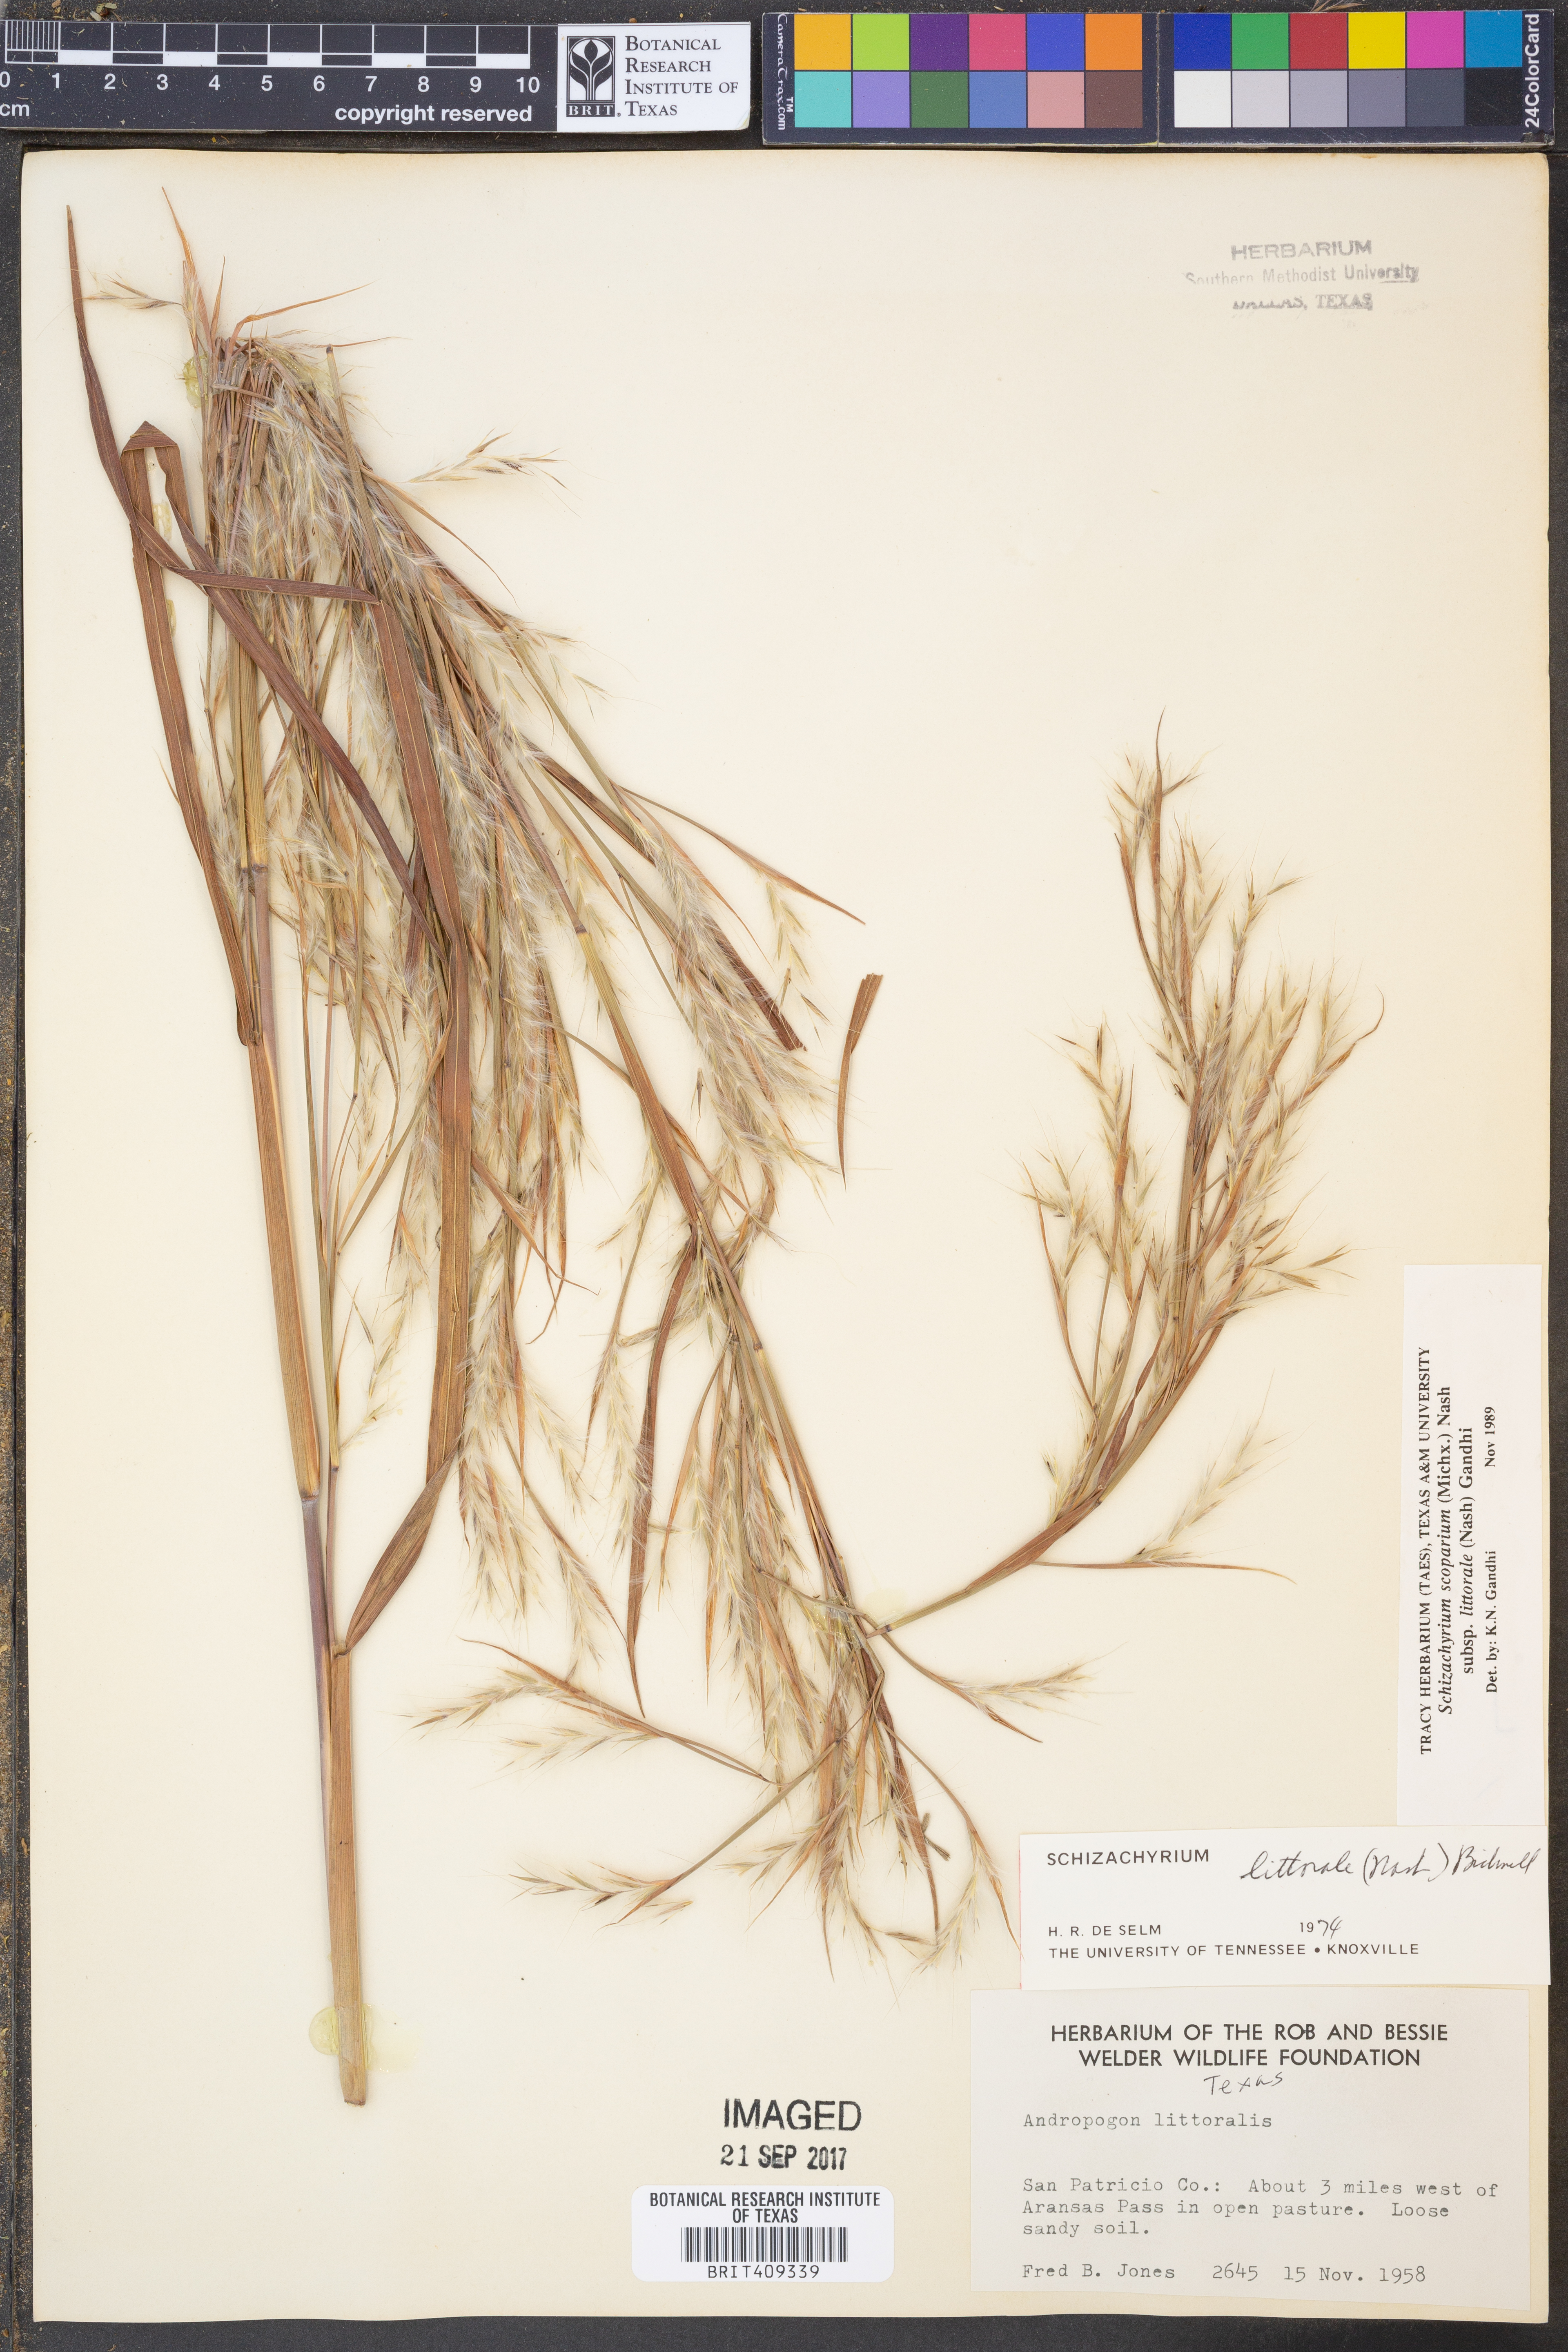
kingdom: Plantae
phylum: Tracheophyta
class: Liliopsida
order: Poales
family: Poaceae
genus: Schizachyrium
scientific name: Schizachyrium scoparium
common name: Little bluestem
